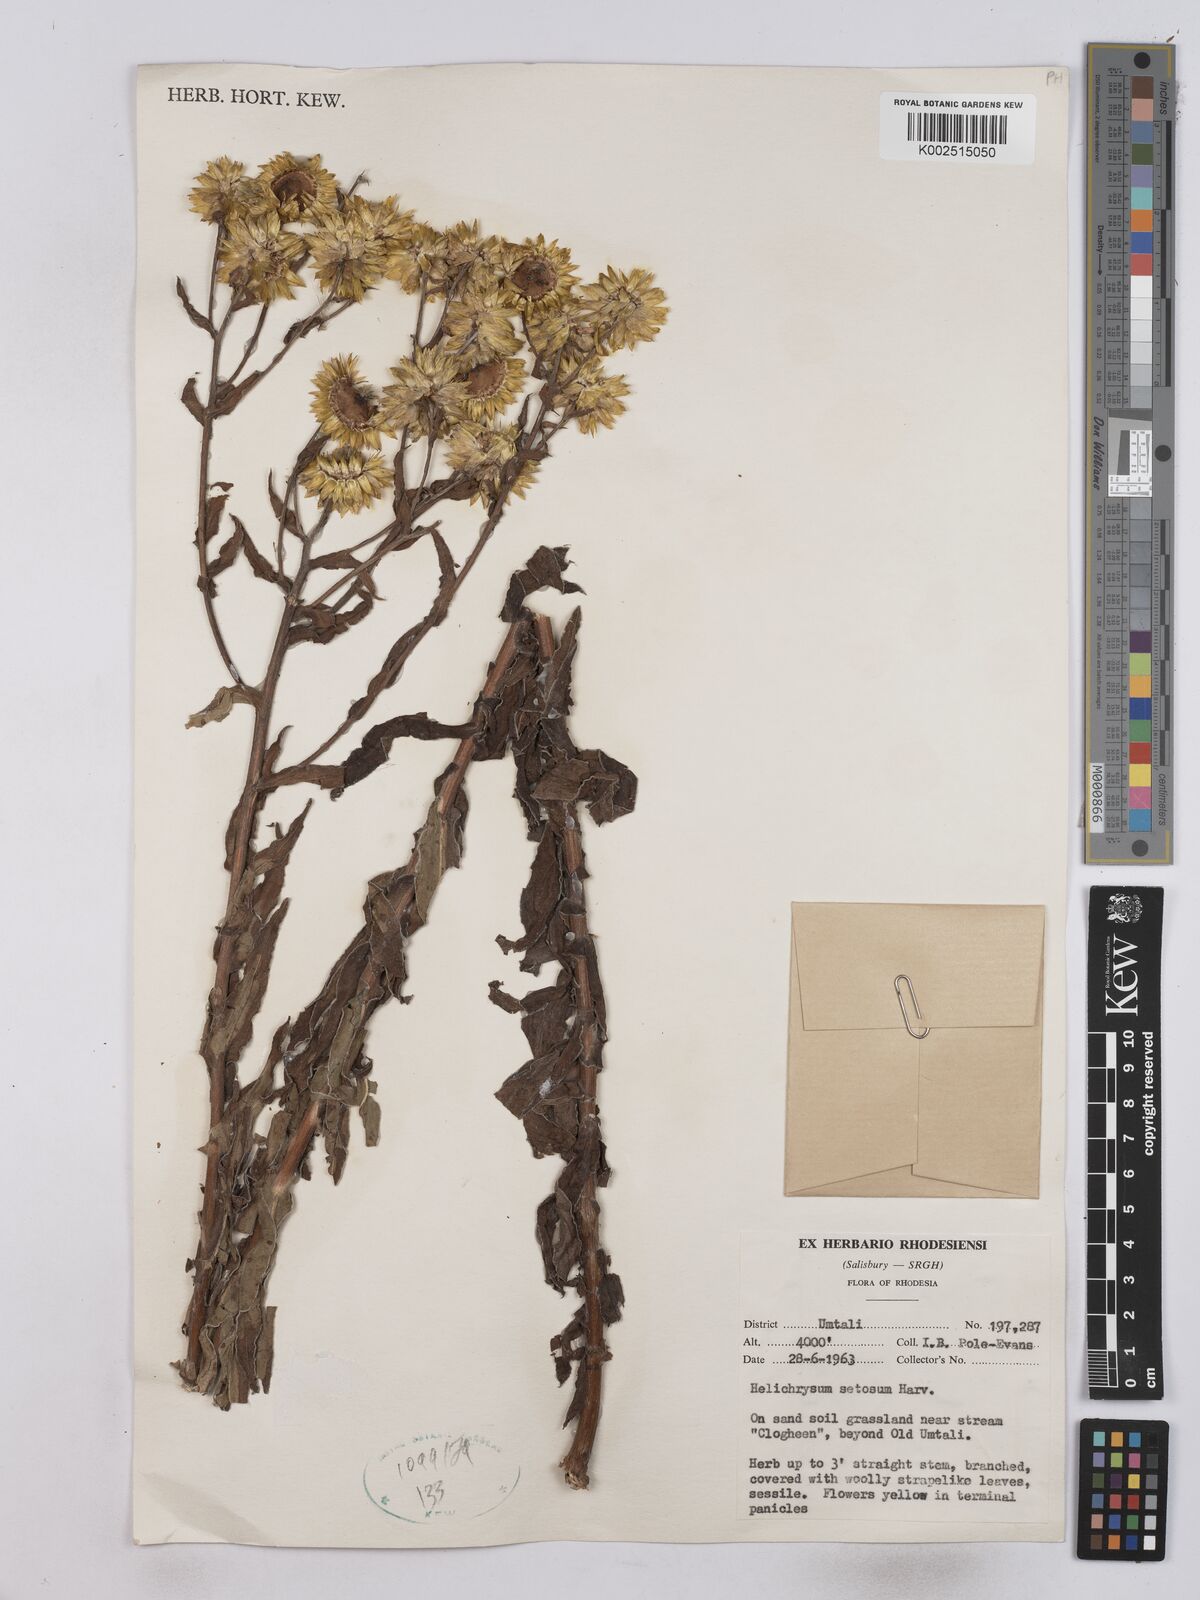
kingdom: Plantae
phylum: Tracheophyta
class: Magnoliopsida
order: Asterales
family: Asteraceae
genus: Helichrysum
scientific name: Helichrysum setosum
